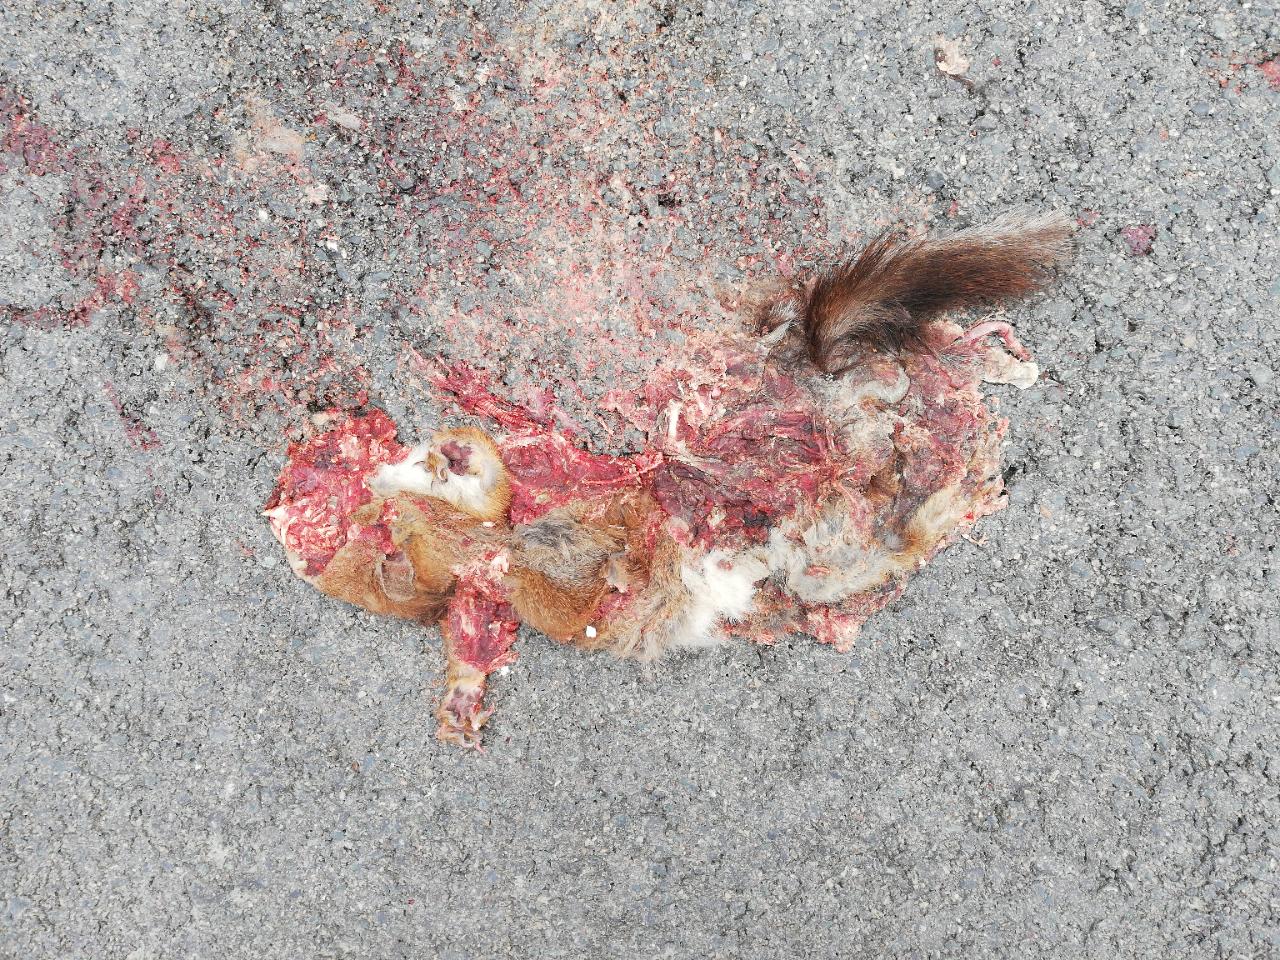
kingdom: Animalia
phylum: Chordata
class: Mammalia
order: Rodentia
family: Sciuridae
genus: Sciurus
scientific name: Sciurus vulgaris
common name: Eurasian red squirrel
